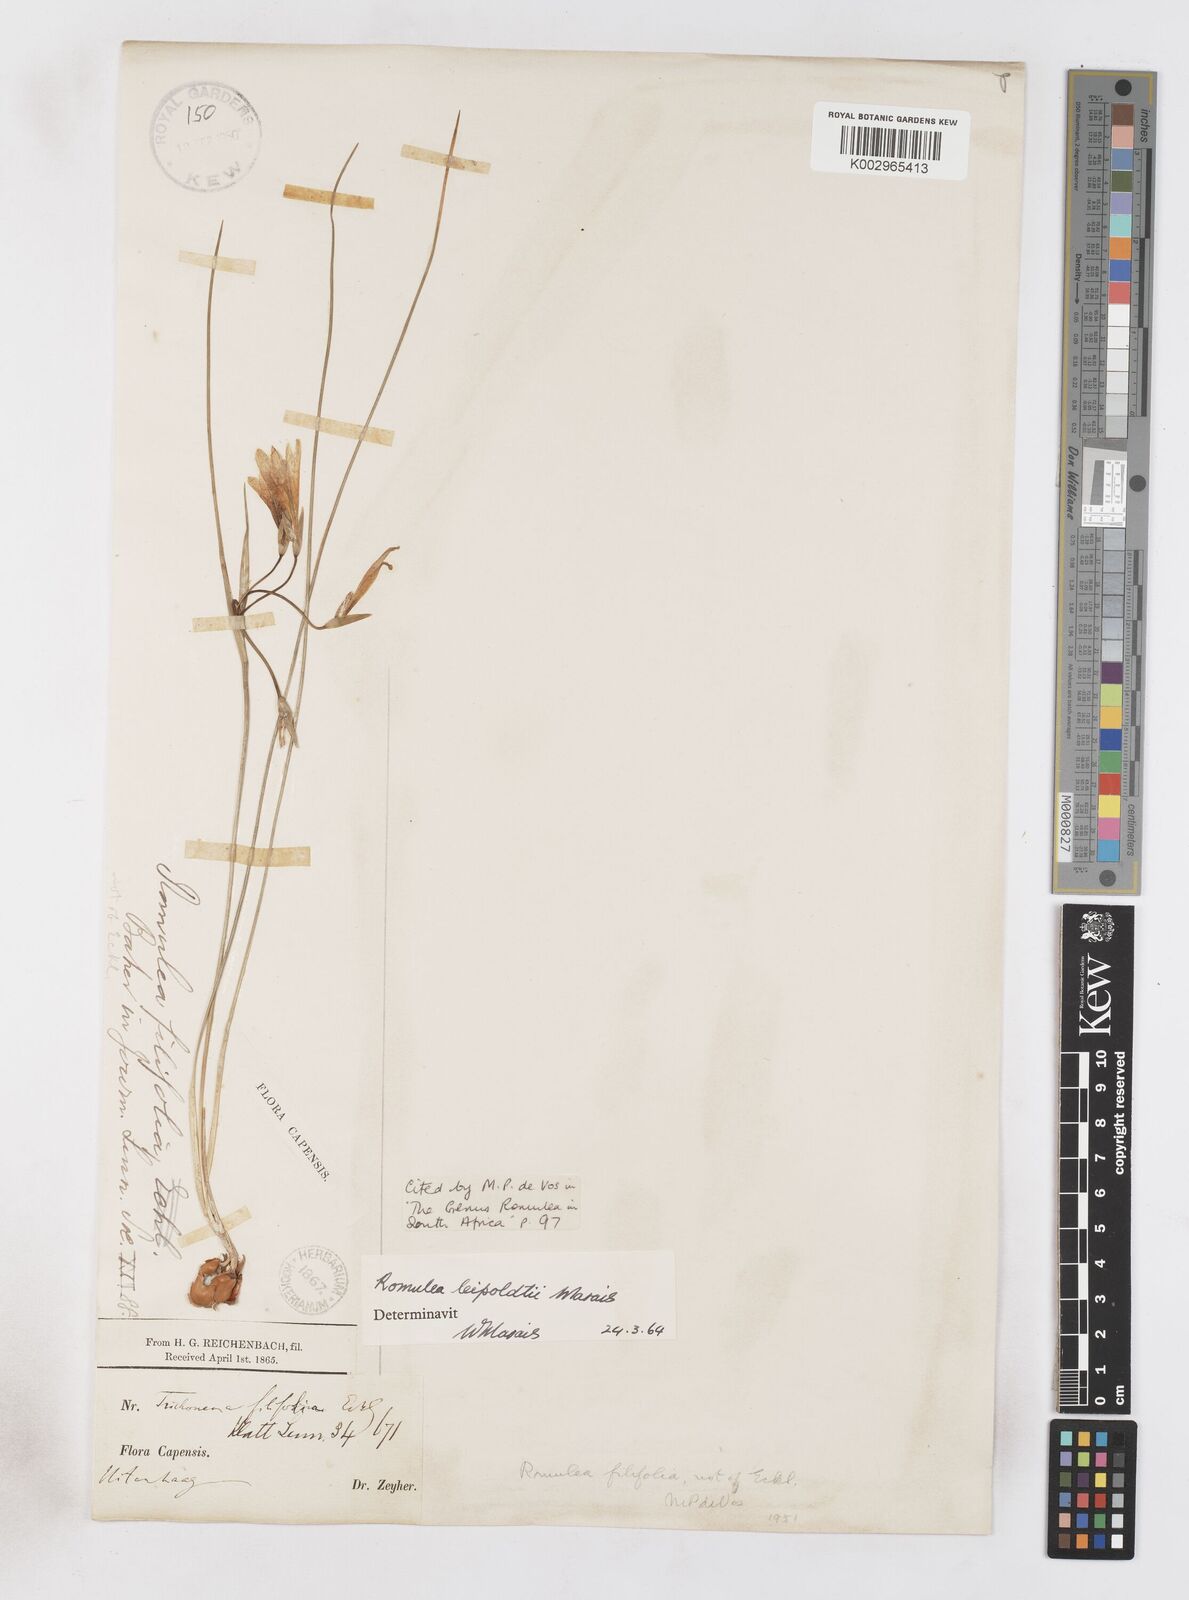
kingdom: Plantae
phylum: Tracheophyta
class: Liliopsida
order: Asparagales
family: Iridaceae
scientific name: Iridaceae
